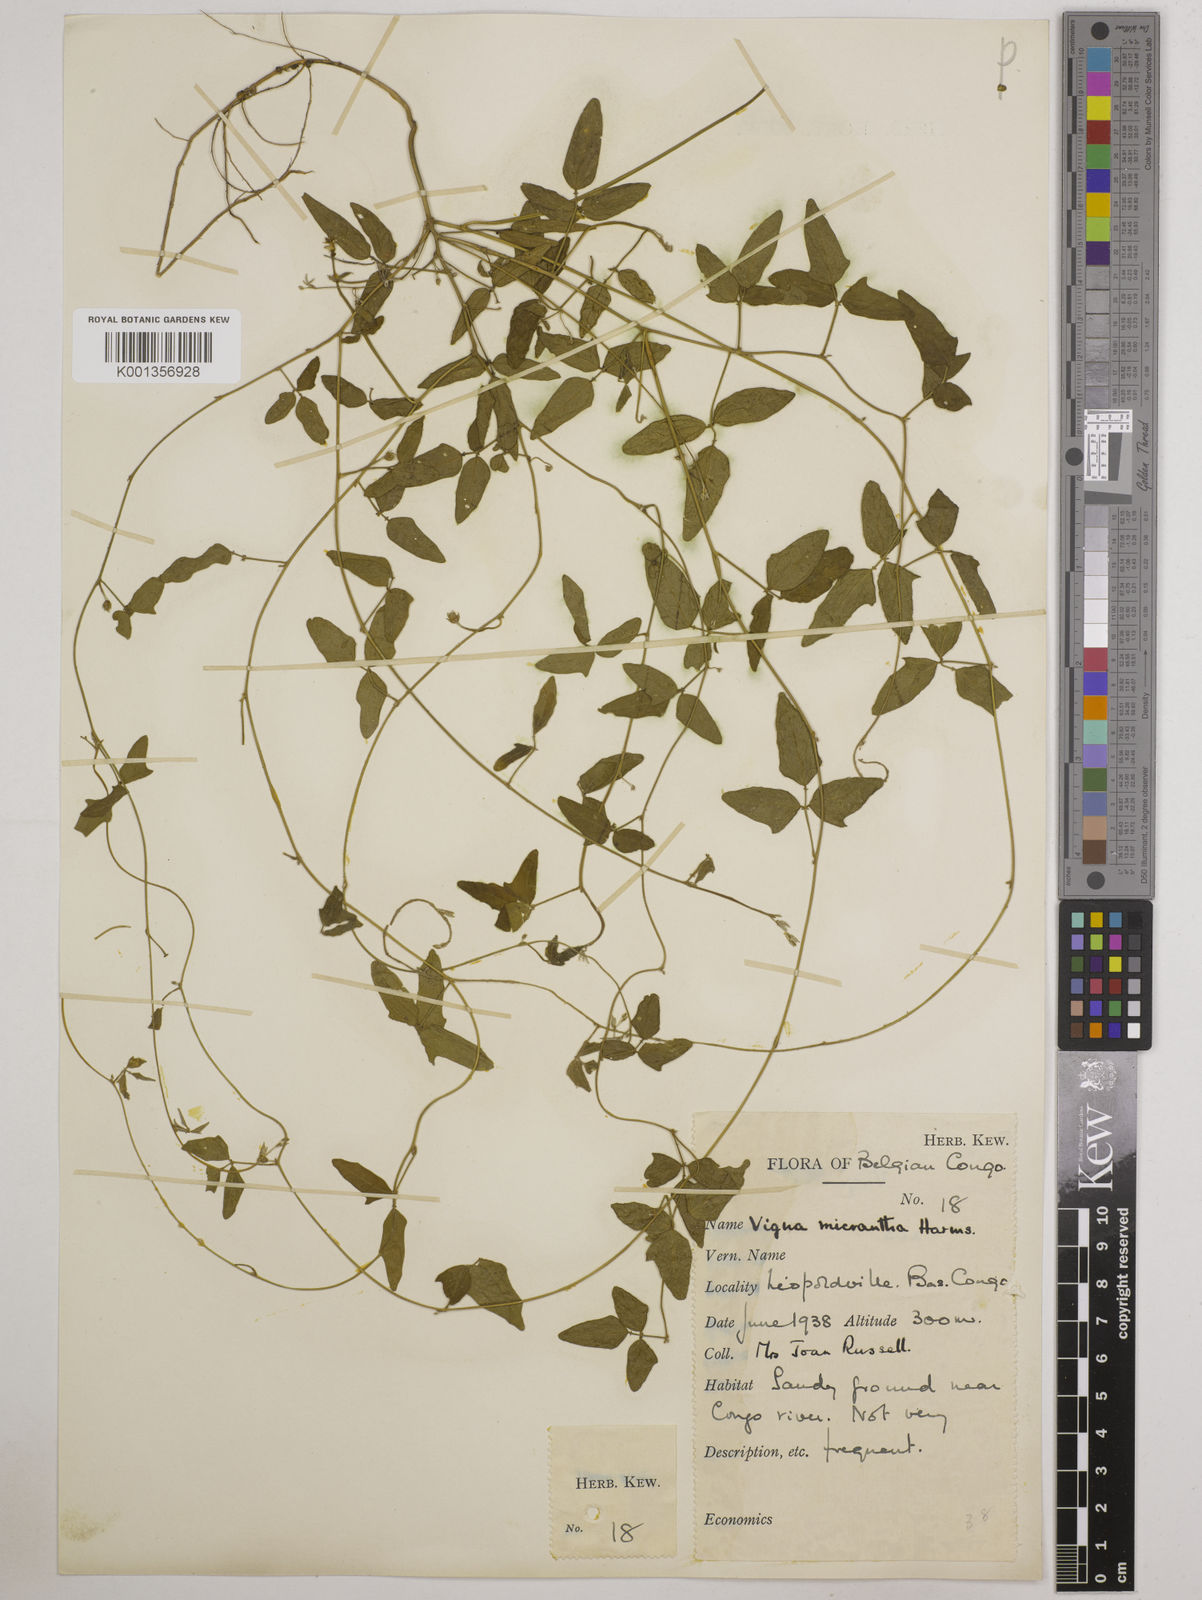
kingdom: Plantae
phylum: Tracheophyta
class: Magnoliopsida
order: Fabales
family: Fabaceae
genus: Vigna
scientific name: Vigna comosa
